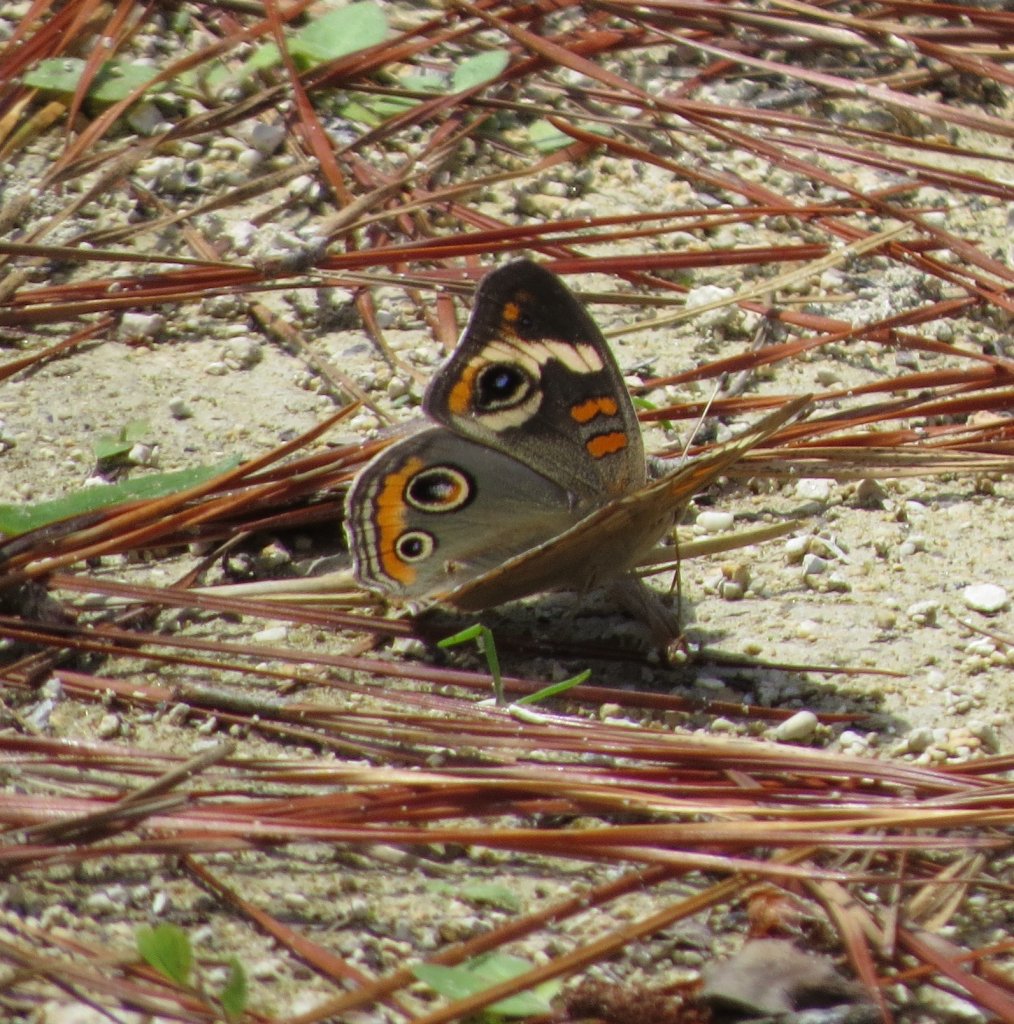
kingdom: Animalia
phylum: Arthropoda
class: Insecta
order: Lepidoptera
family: Nymphalidae
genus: Junonia
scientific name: Junonia coenia
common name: Common Buckeye
